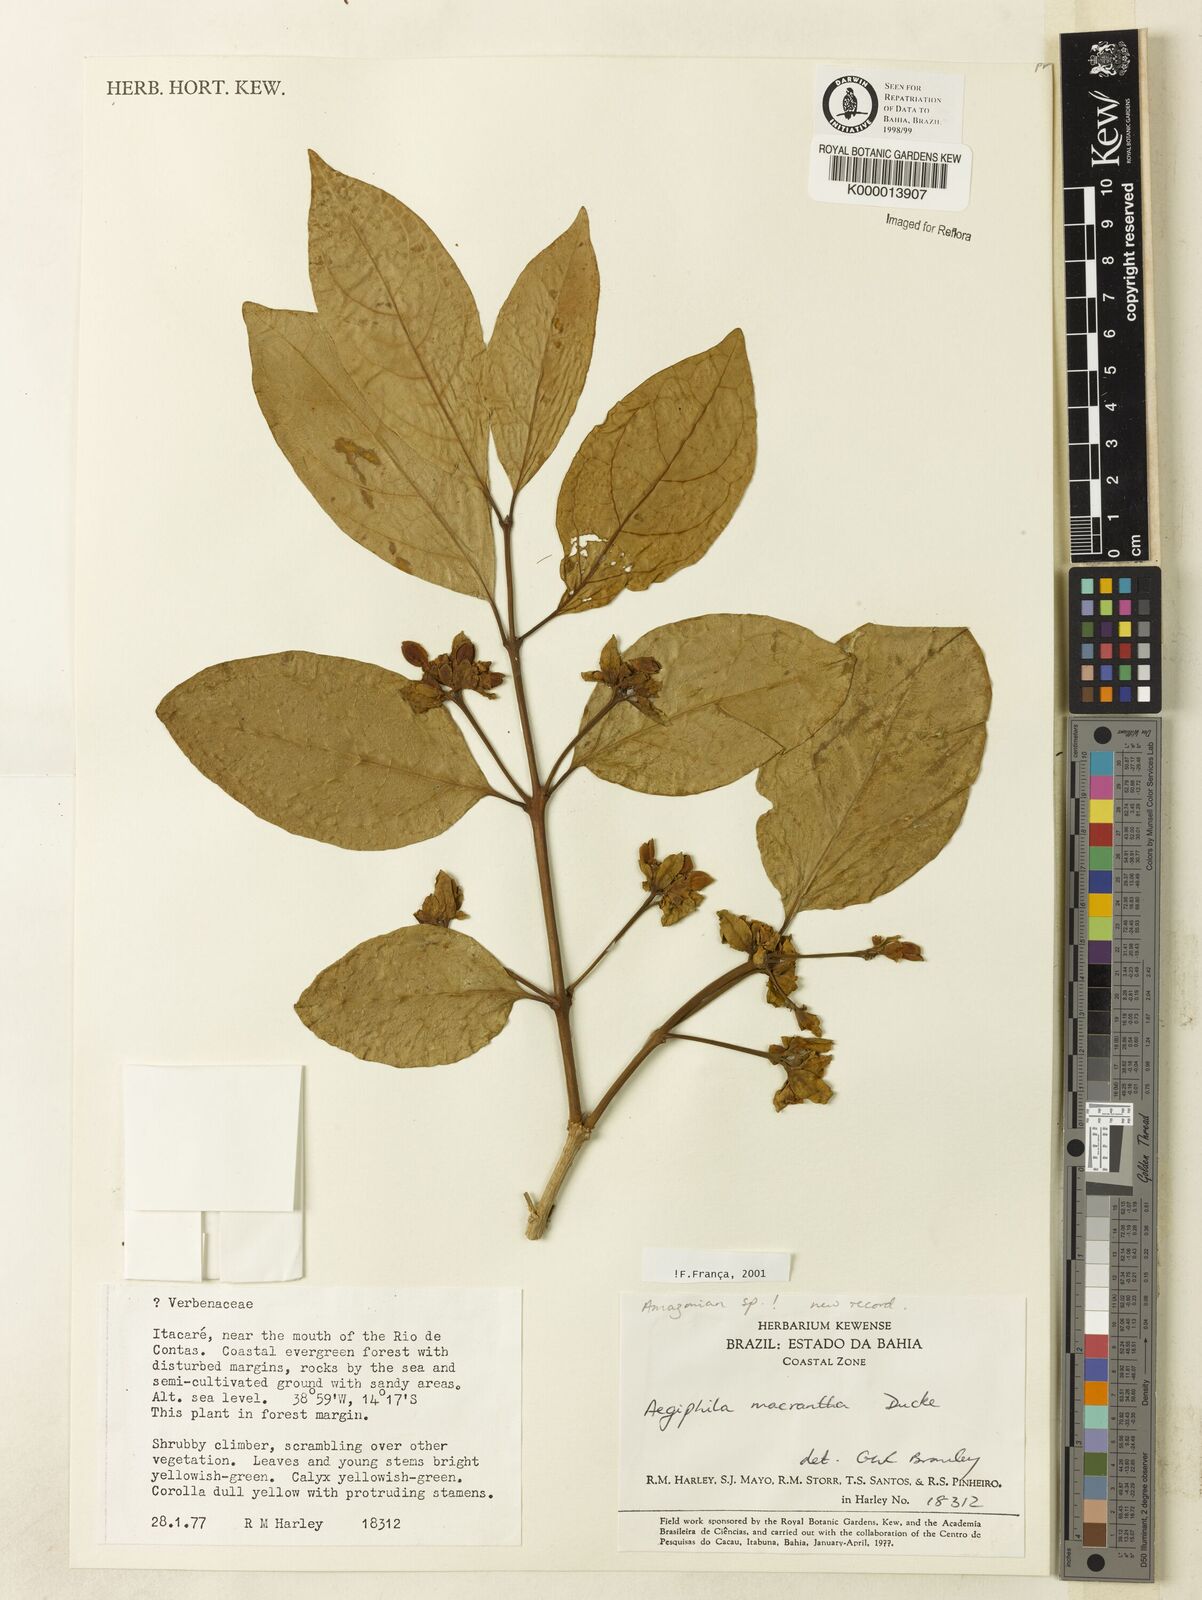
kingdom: Plantae
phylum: Tracheophyta
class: Magnoliopsida
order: Lamiales
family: Lamiaceae
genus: Aegiphila
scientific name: Aegiphila macrantha
